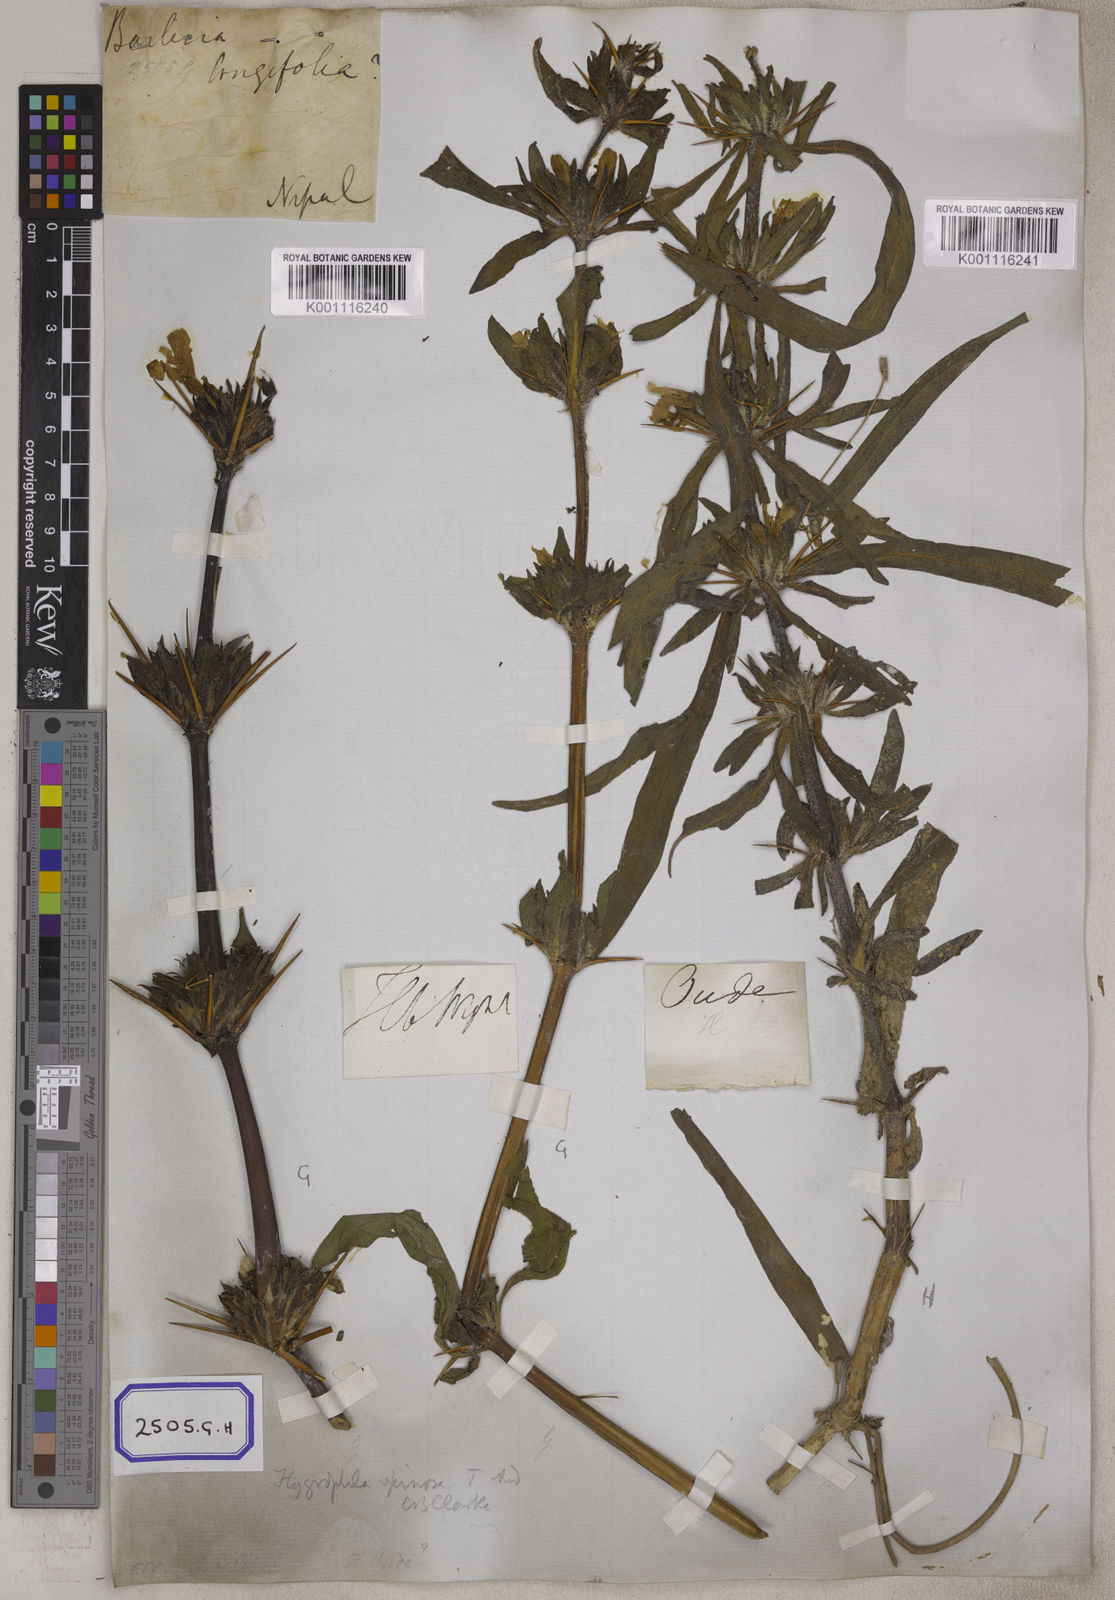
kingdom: Plantae
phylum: Tracheophyta
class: Magnoliopsida
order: Lamiales
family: Acanthaceae
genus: Barleria
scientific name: Barleria longiflora
